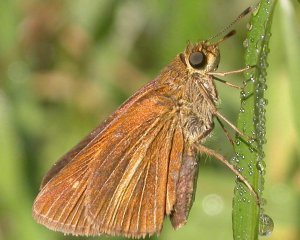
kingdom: Animalia
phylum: Arthropoda
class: Insecta
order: Lepidoptera
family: Hesperiidae
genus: Euphyes
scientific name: Euphyes dion
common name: Dion Skipper
